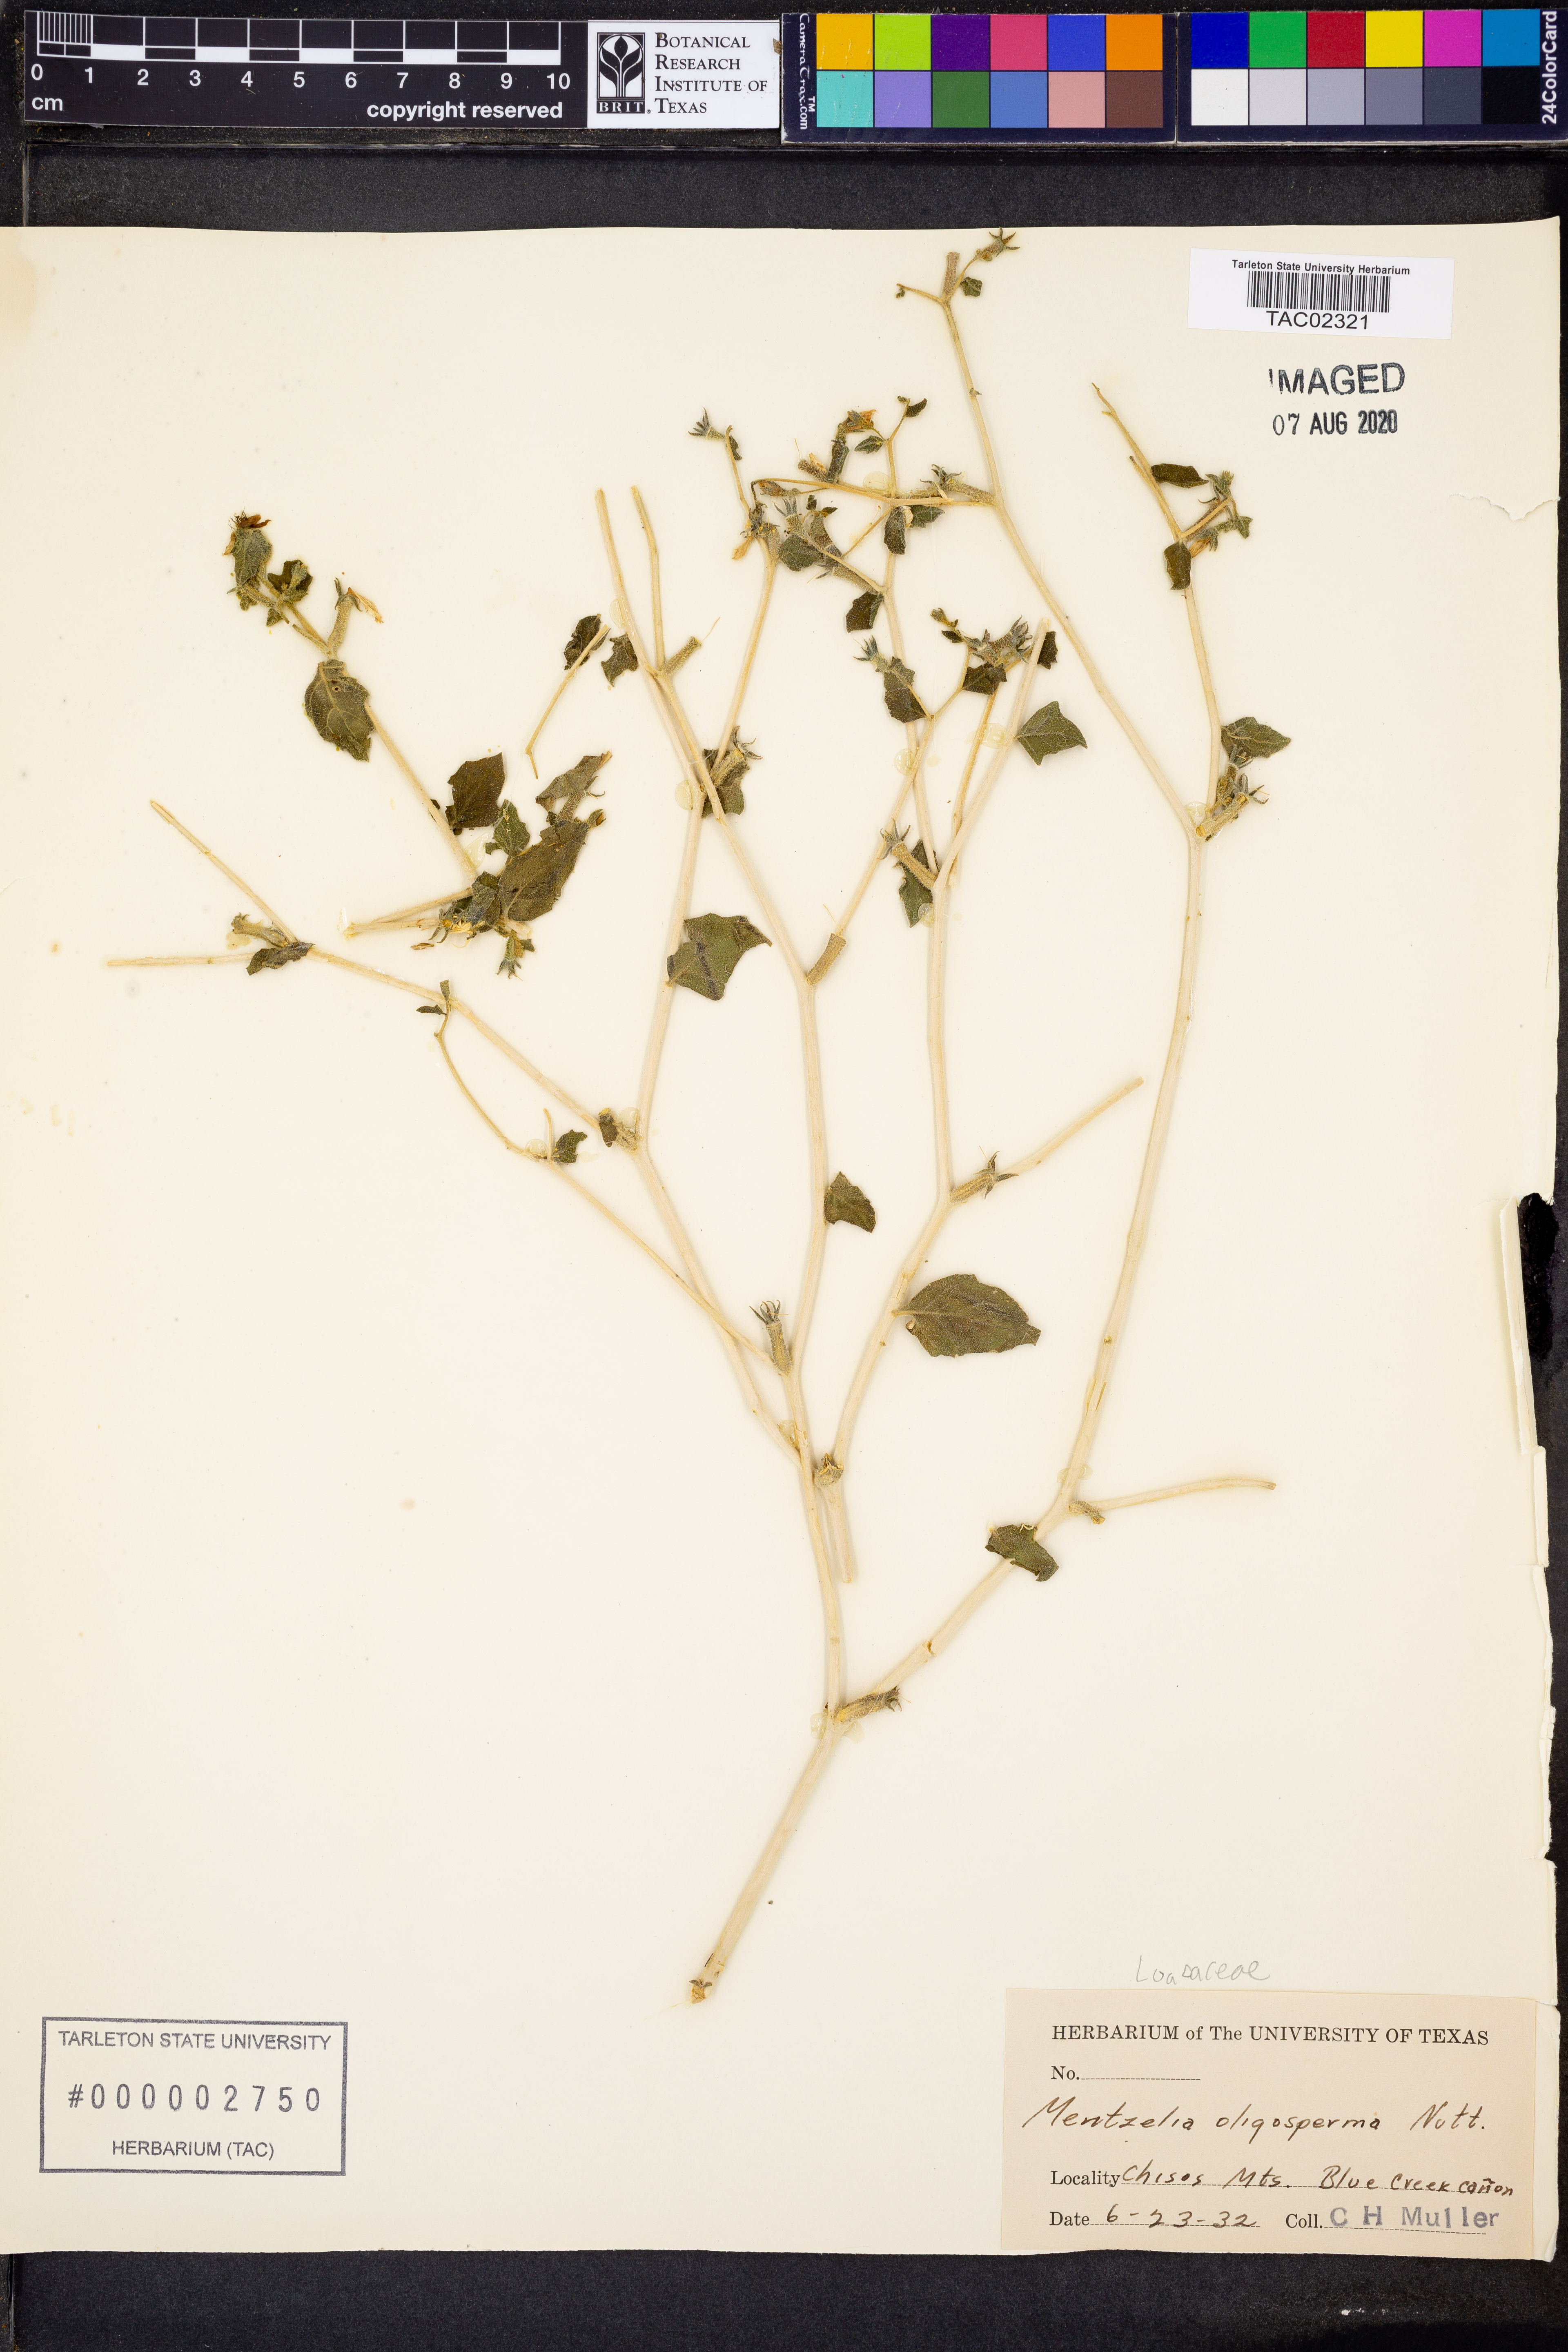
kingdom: Plantae
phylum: Tracheophyta
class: Magnoliopsida
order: Cornales
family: Loasaceae
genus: Mentzelia
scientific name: Mentzelia oligosperma
